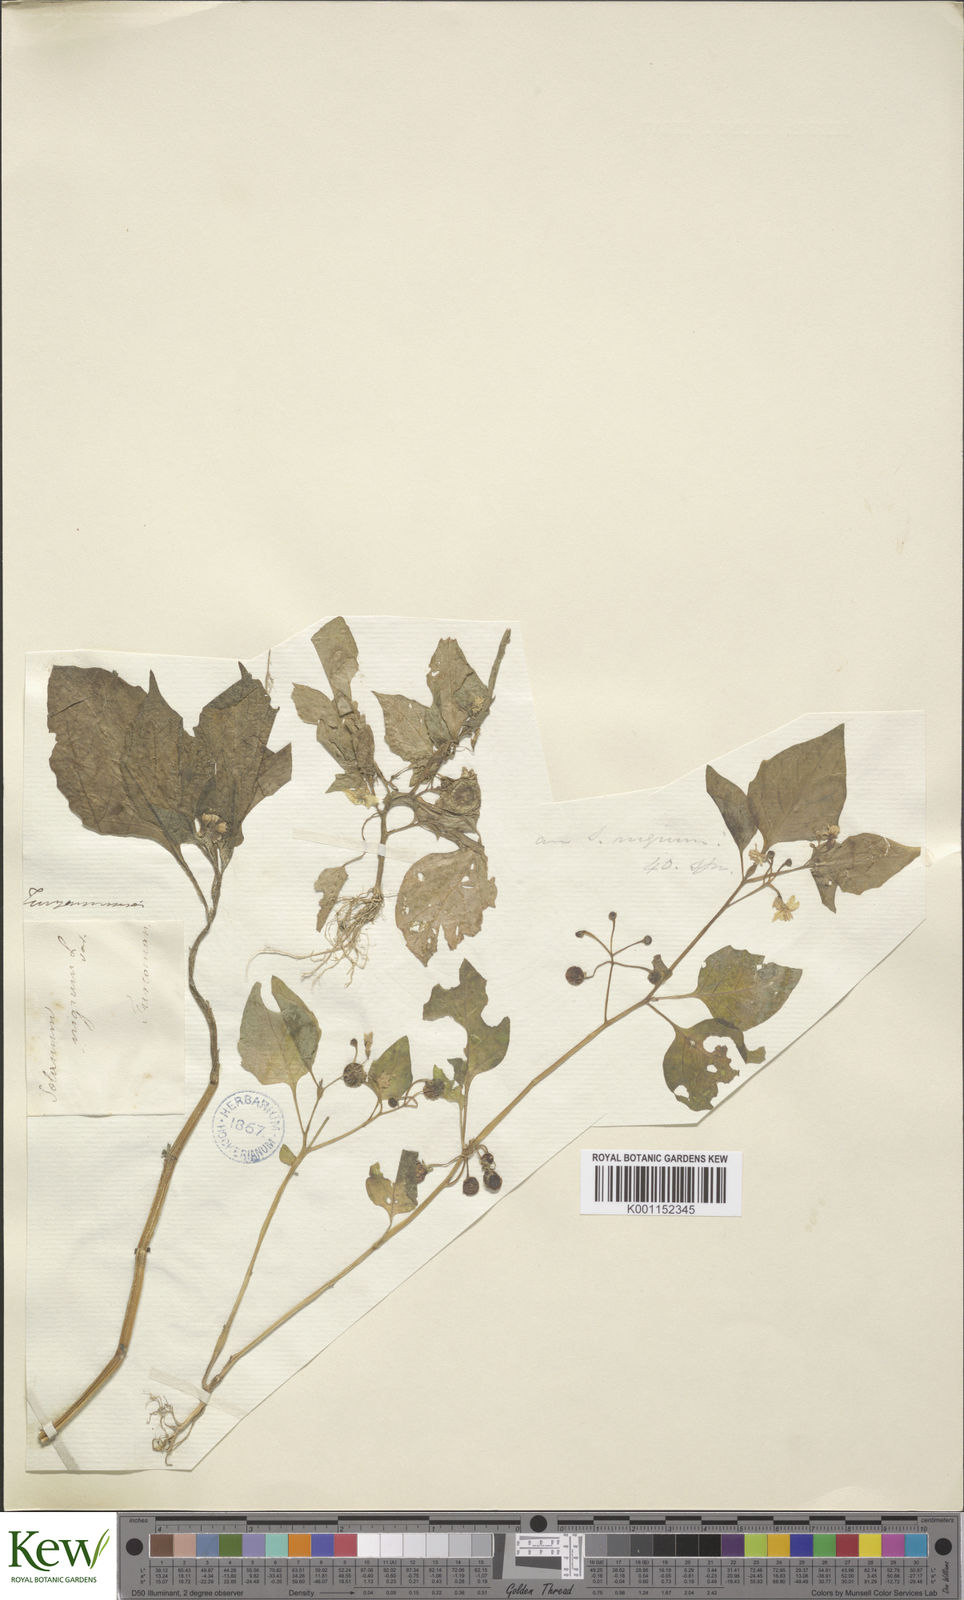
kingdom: Plantae
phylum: Tracheophyta
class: Magnoliopsida
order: Solanales
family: Solanaceae
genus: Solanum
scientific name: Solanum nigrum
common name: Black nightshade
